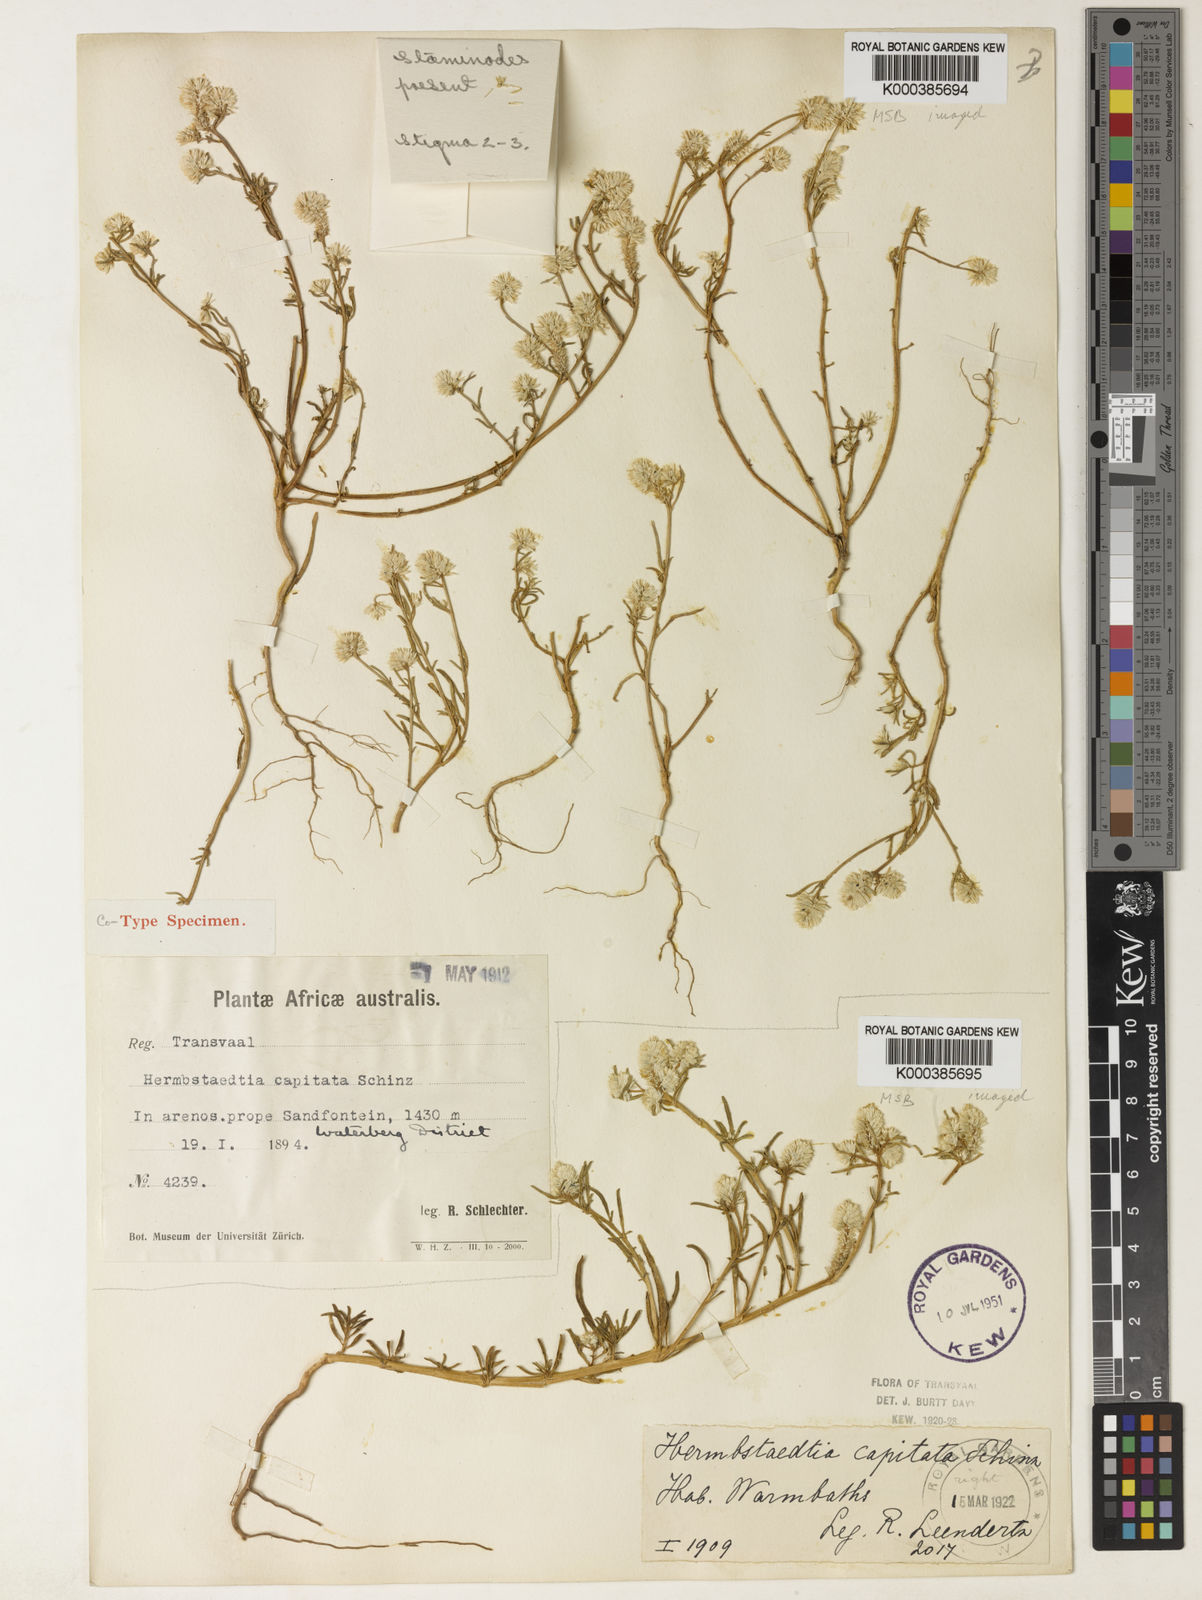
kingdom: Plantae
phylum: Tracheophyta
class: Magnoliopsida
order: Caryophyllales
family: Amaranthaceae
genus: Hermbstaedtia
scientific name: Hermbstaedtia capitata
